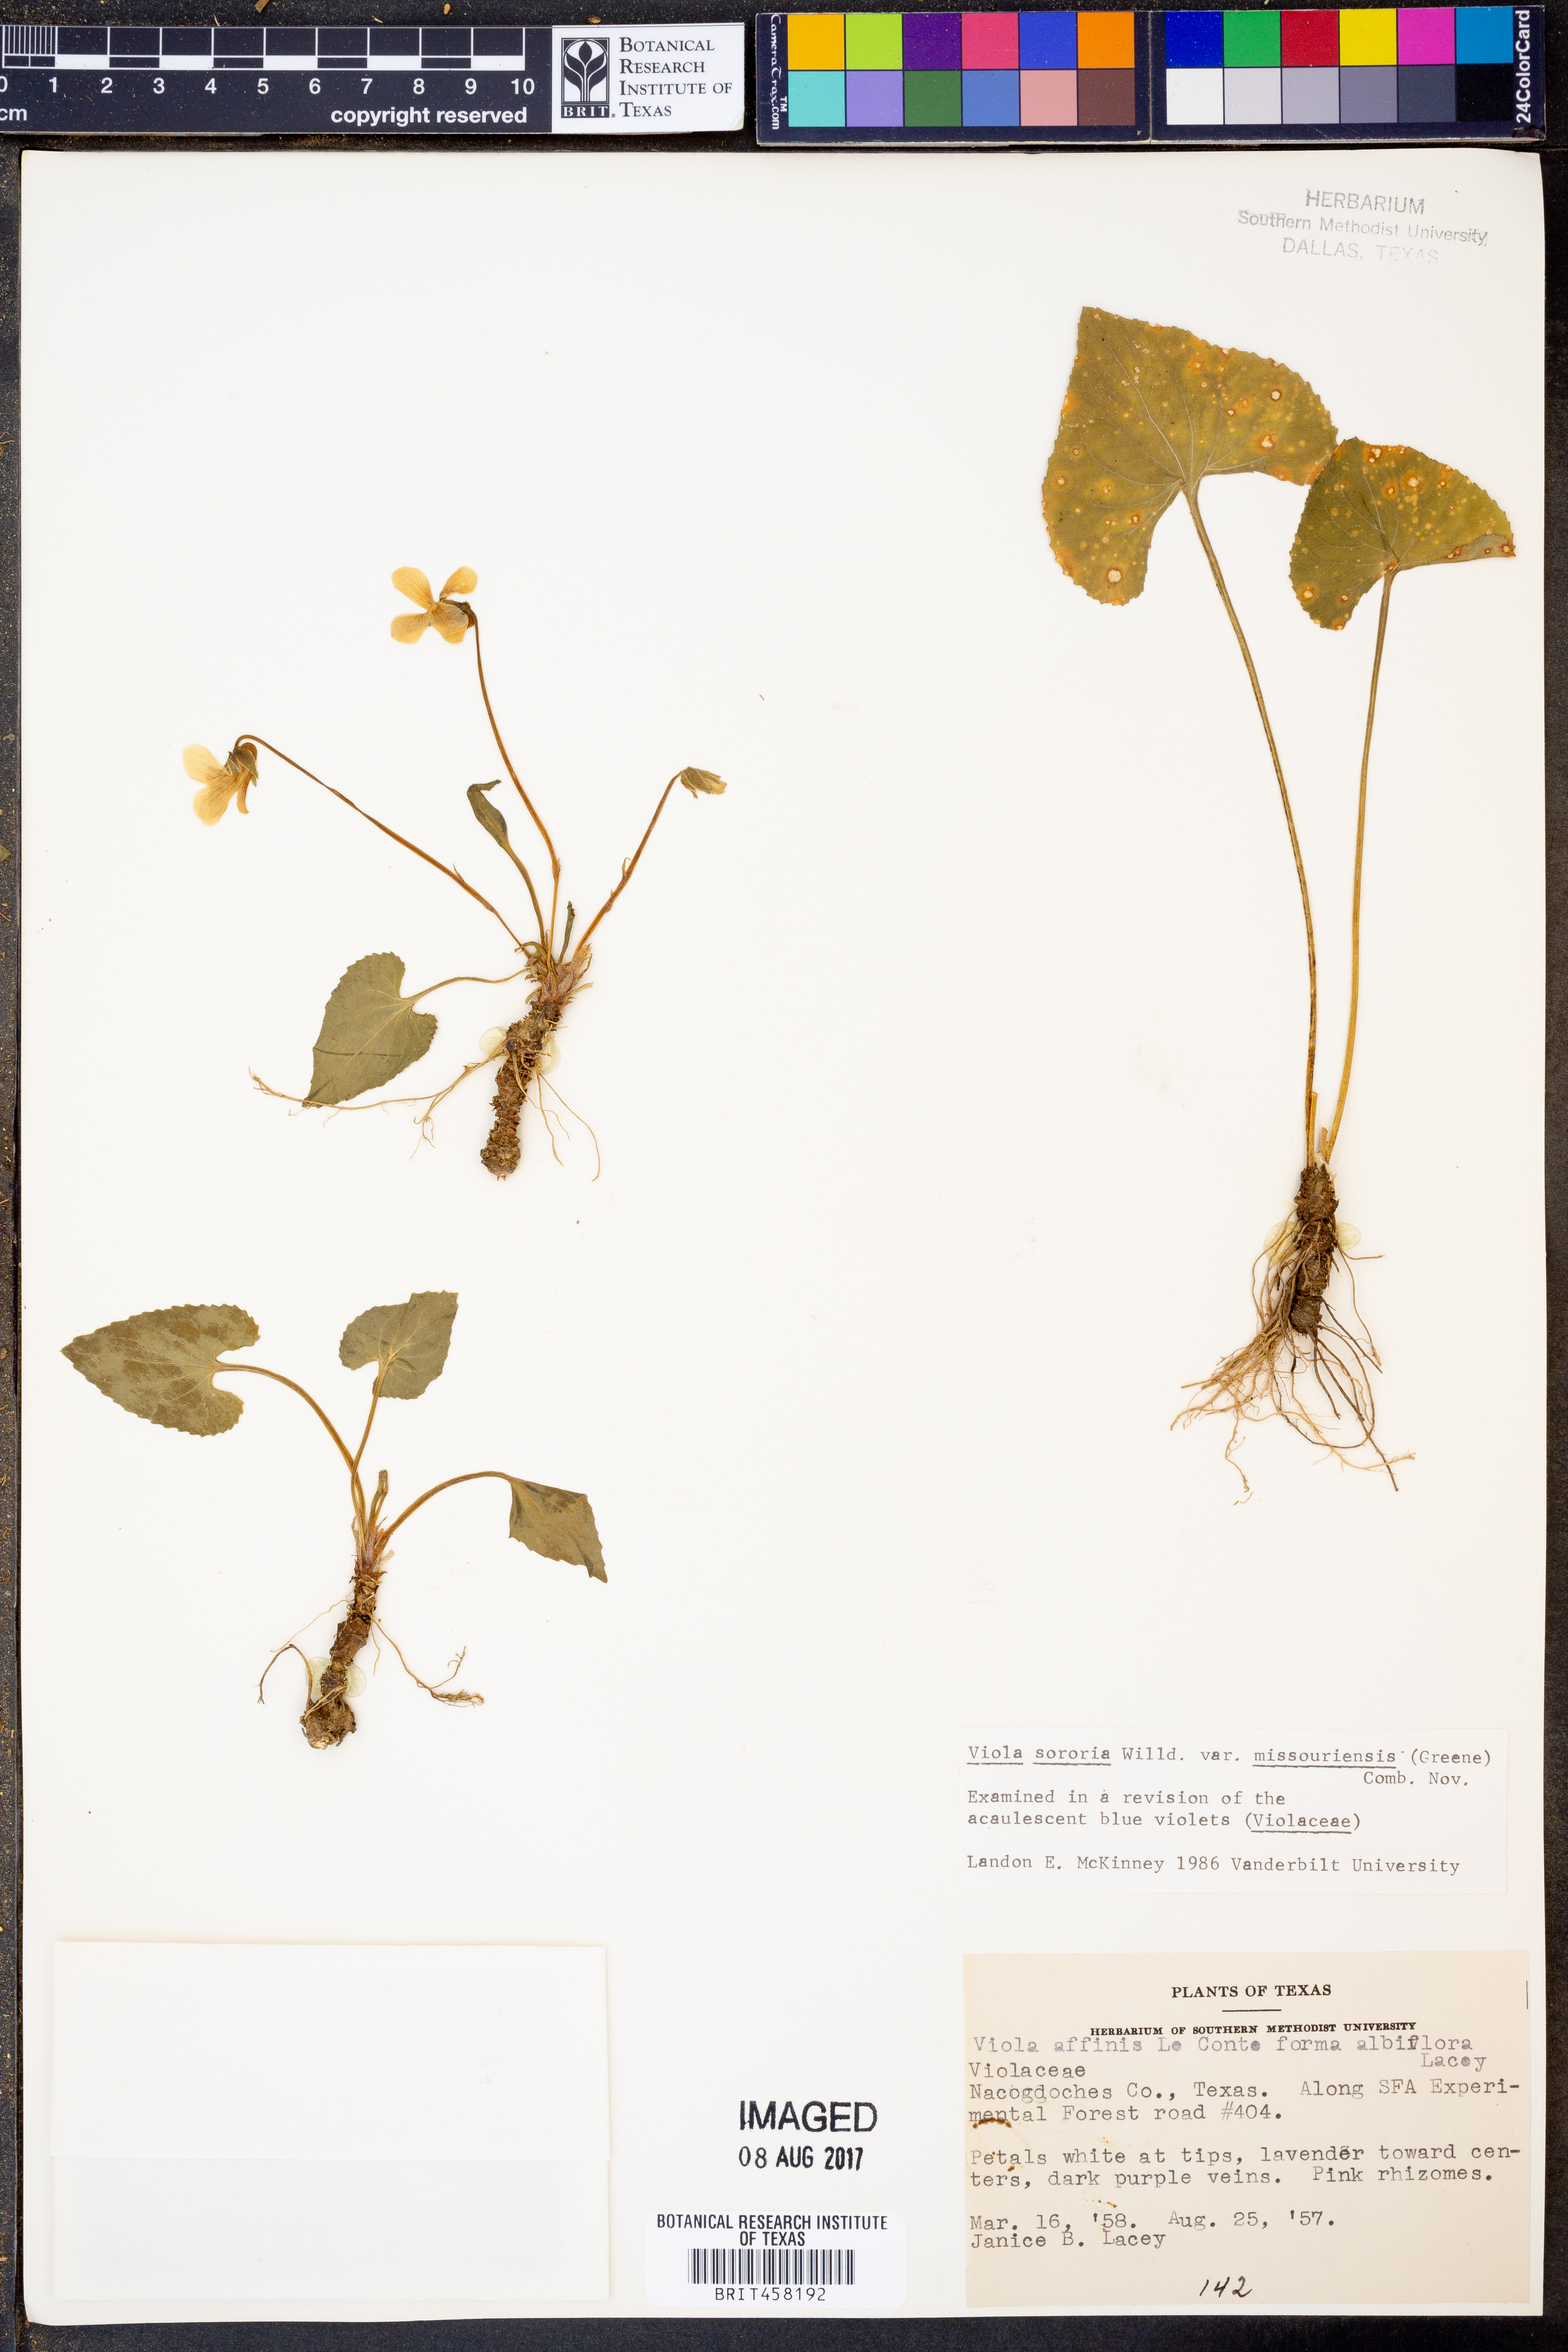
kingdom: Plantae
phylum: Tracheophyta
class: Magnoliopsida
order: Malpighiales
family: Violaceae
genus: Viola
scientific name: Viola missouriensis
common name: Missouri violet
